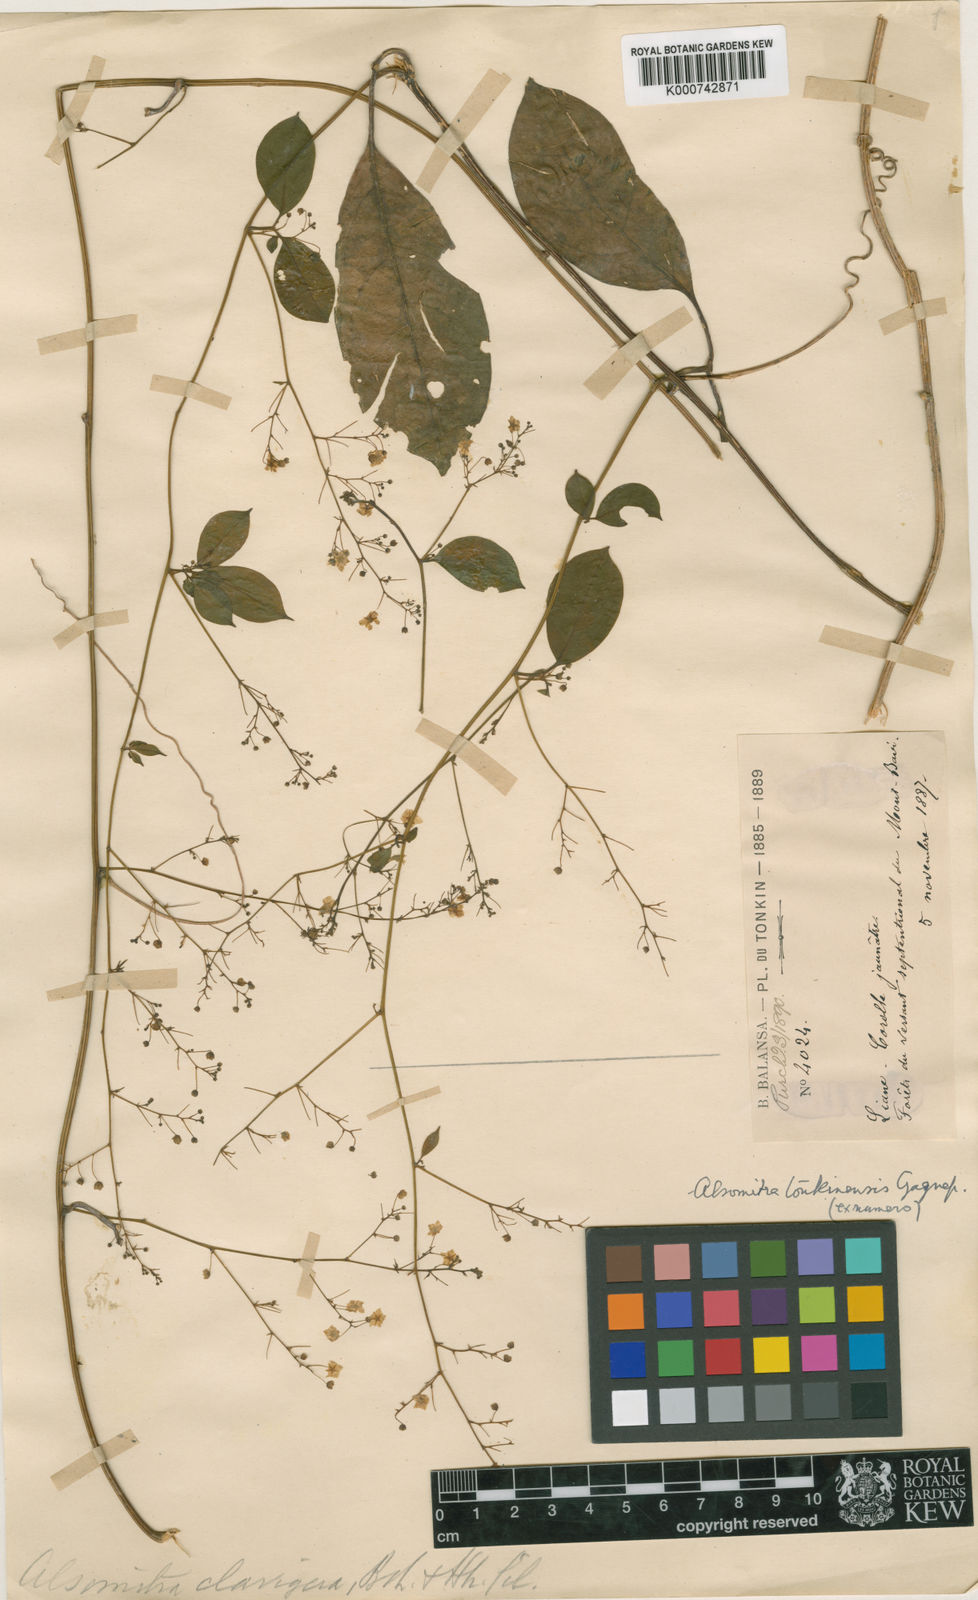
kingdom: Plantae
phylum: Tracheophyta
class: Magnoliopsida
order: Cucurbitales
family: Cucurbitaceae
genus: Neoalsomitra
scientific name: Neoalsomitra clavigera
